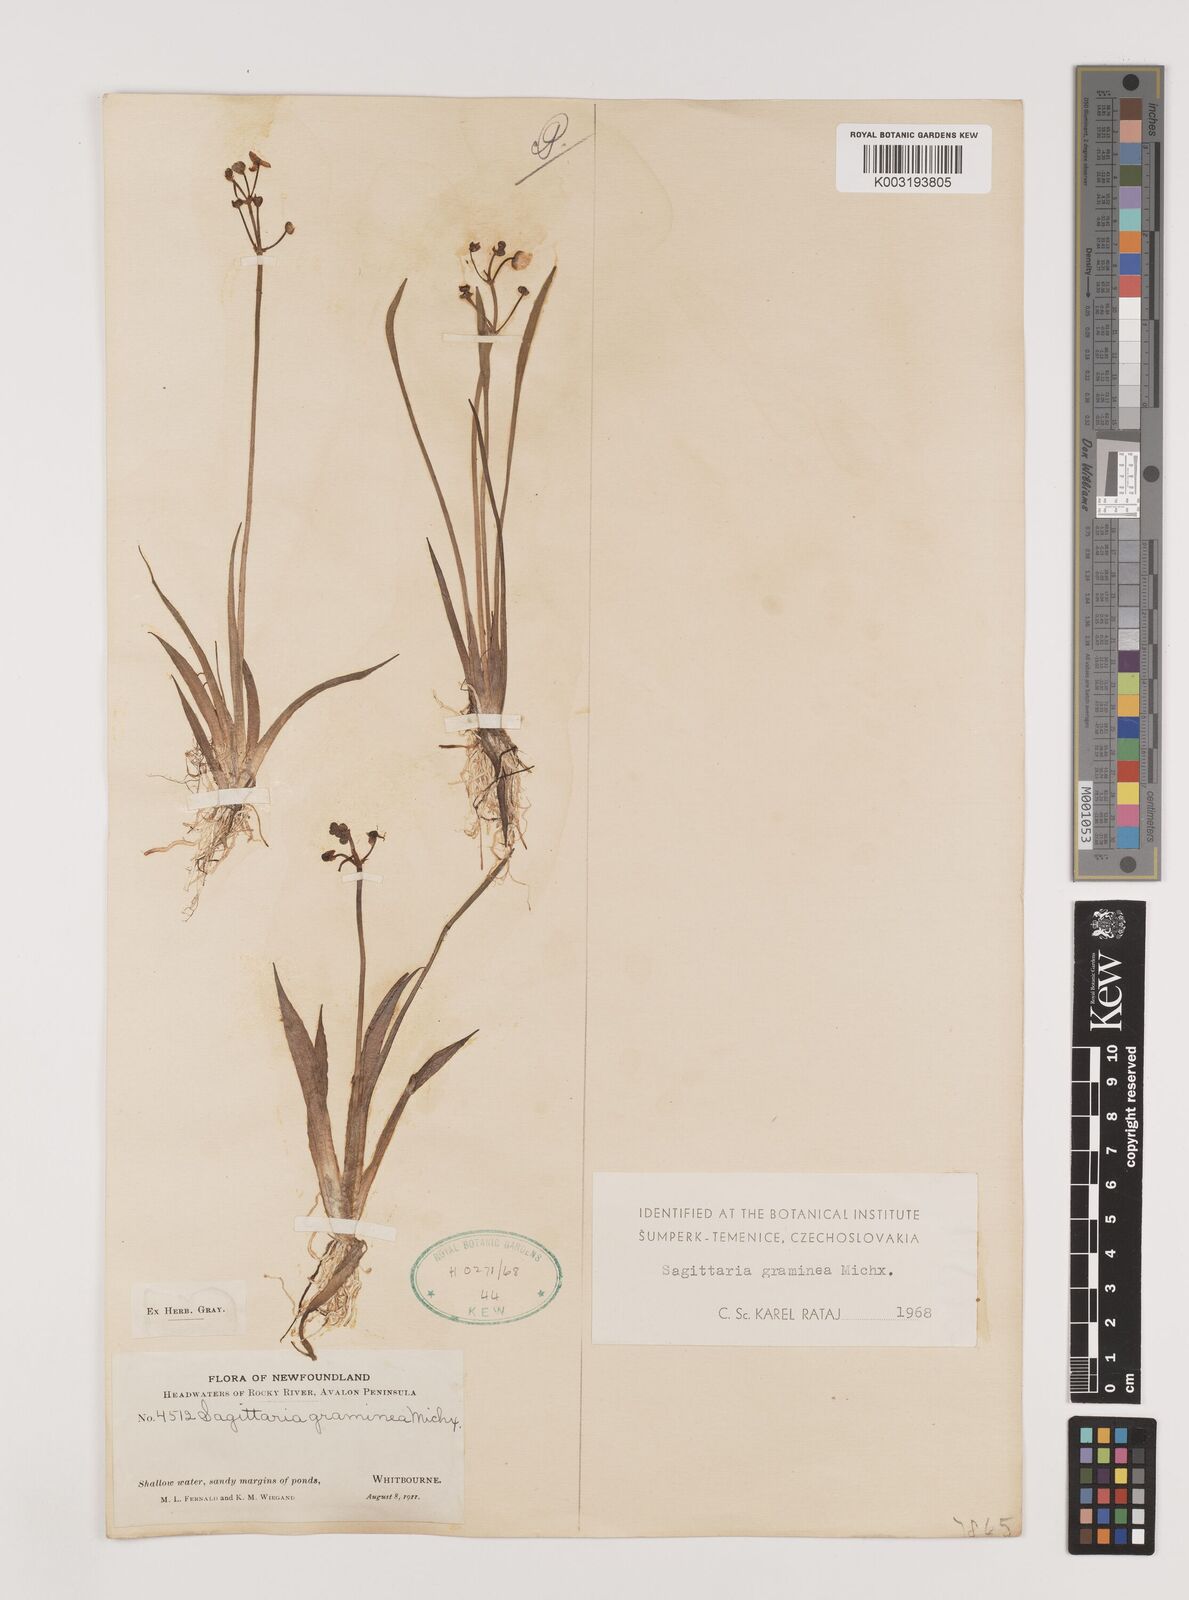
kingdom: Plantae
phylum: Tracheophyta
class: Liliopsida
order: Alismatales
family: Alismataceae
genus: Sagittaria
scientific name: Sagittaria graminea
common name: Grass-leaved arrowhead
